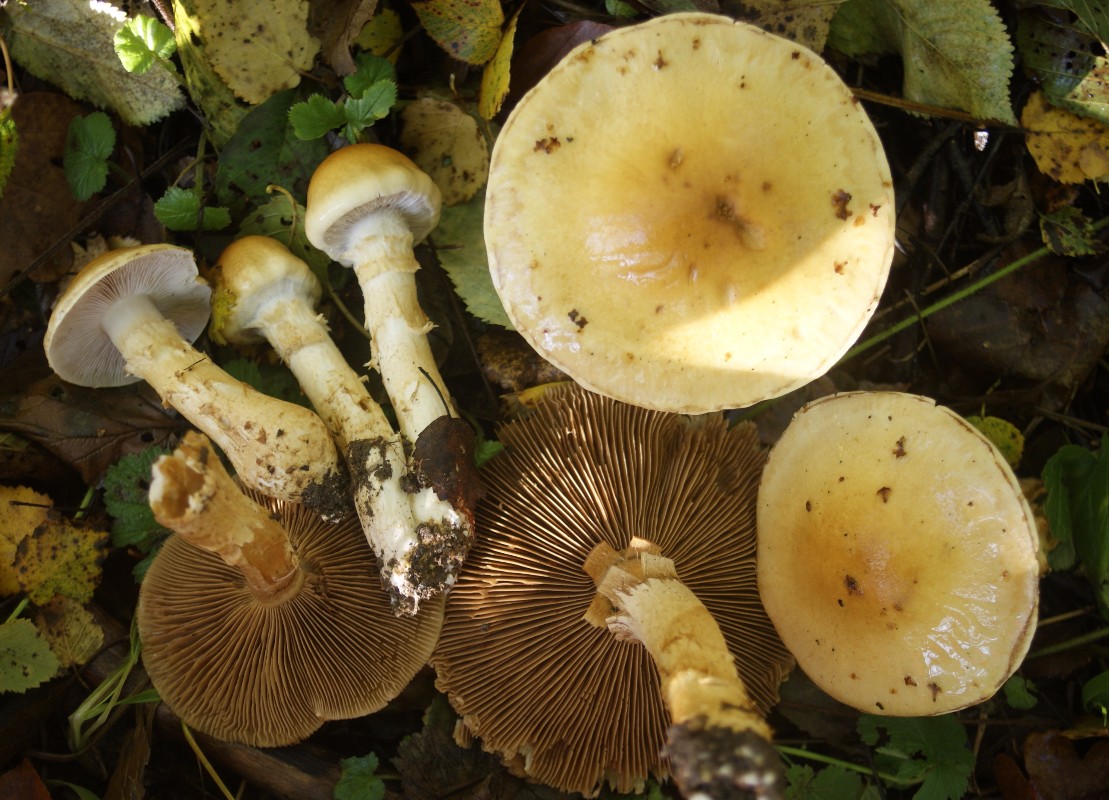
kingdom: Fungi
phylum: Basidiomycota
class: Agaricomycetes
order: Agaricales
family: Cortinariaceae
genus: Phlegmacium
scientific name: Phlegmacium triumphans
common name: gulbæltet slørhat
